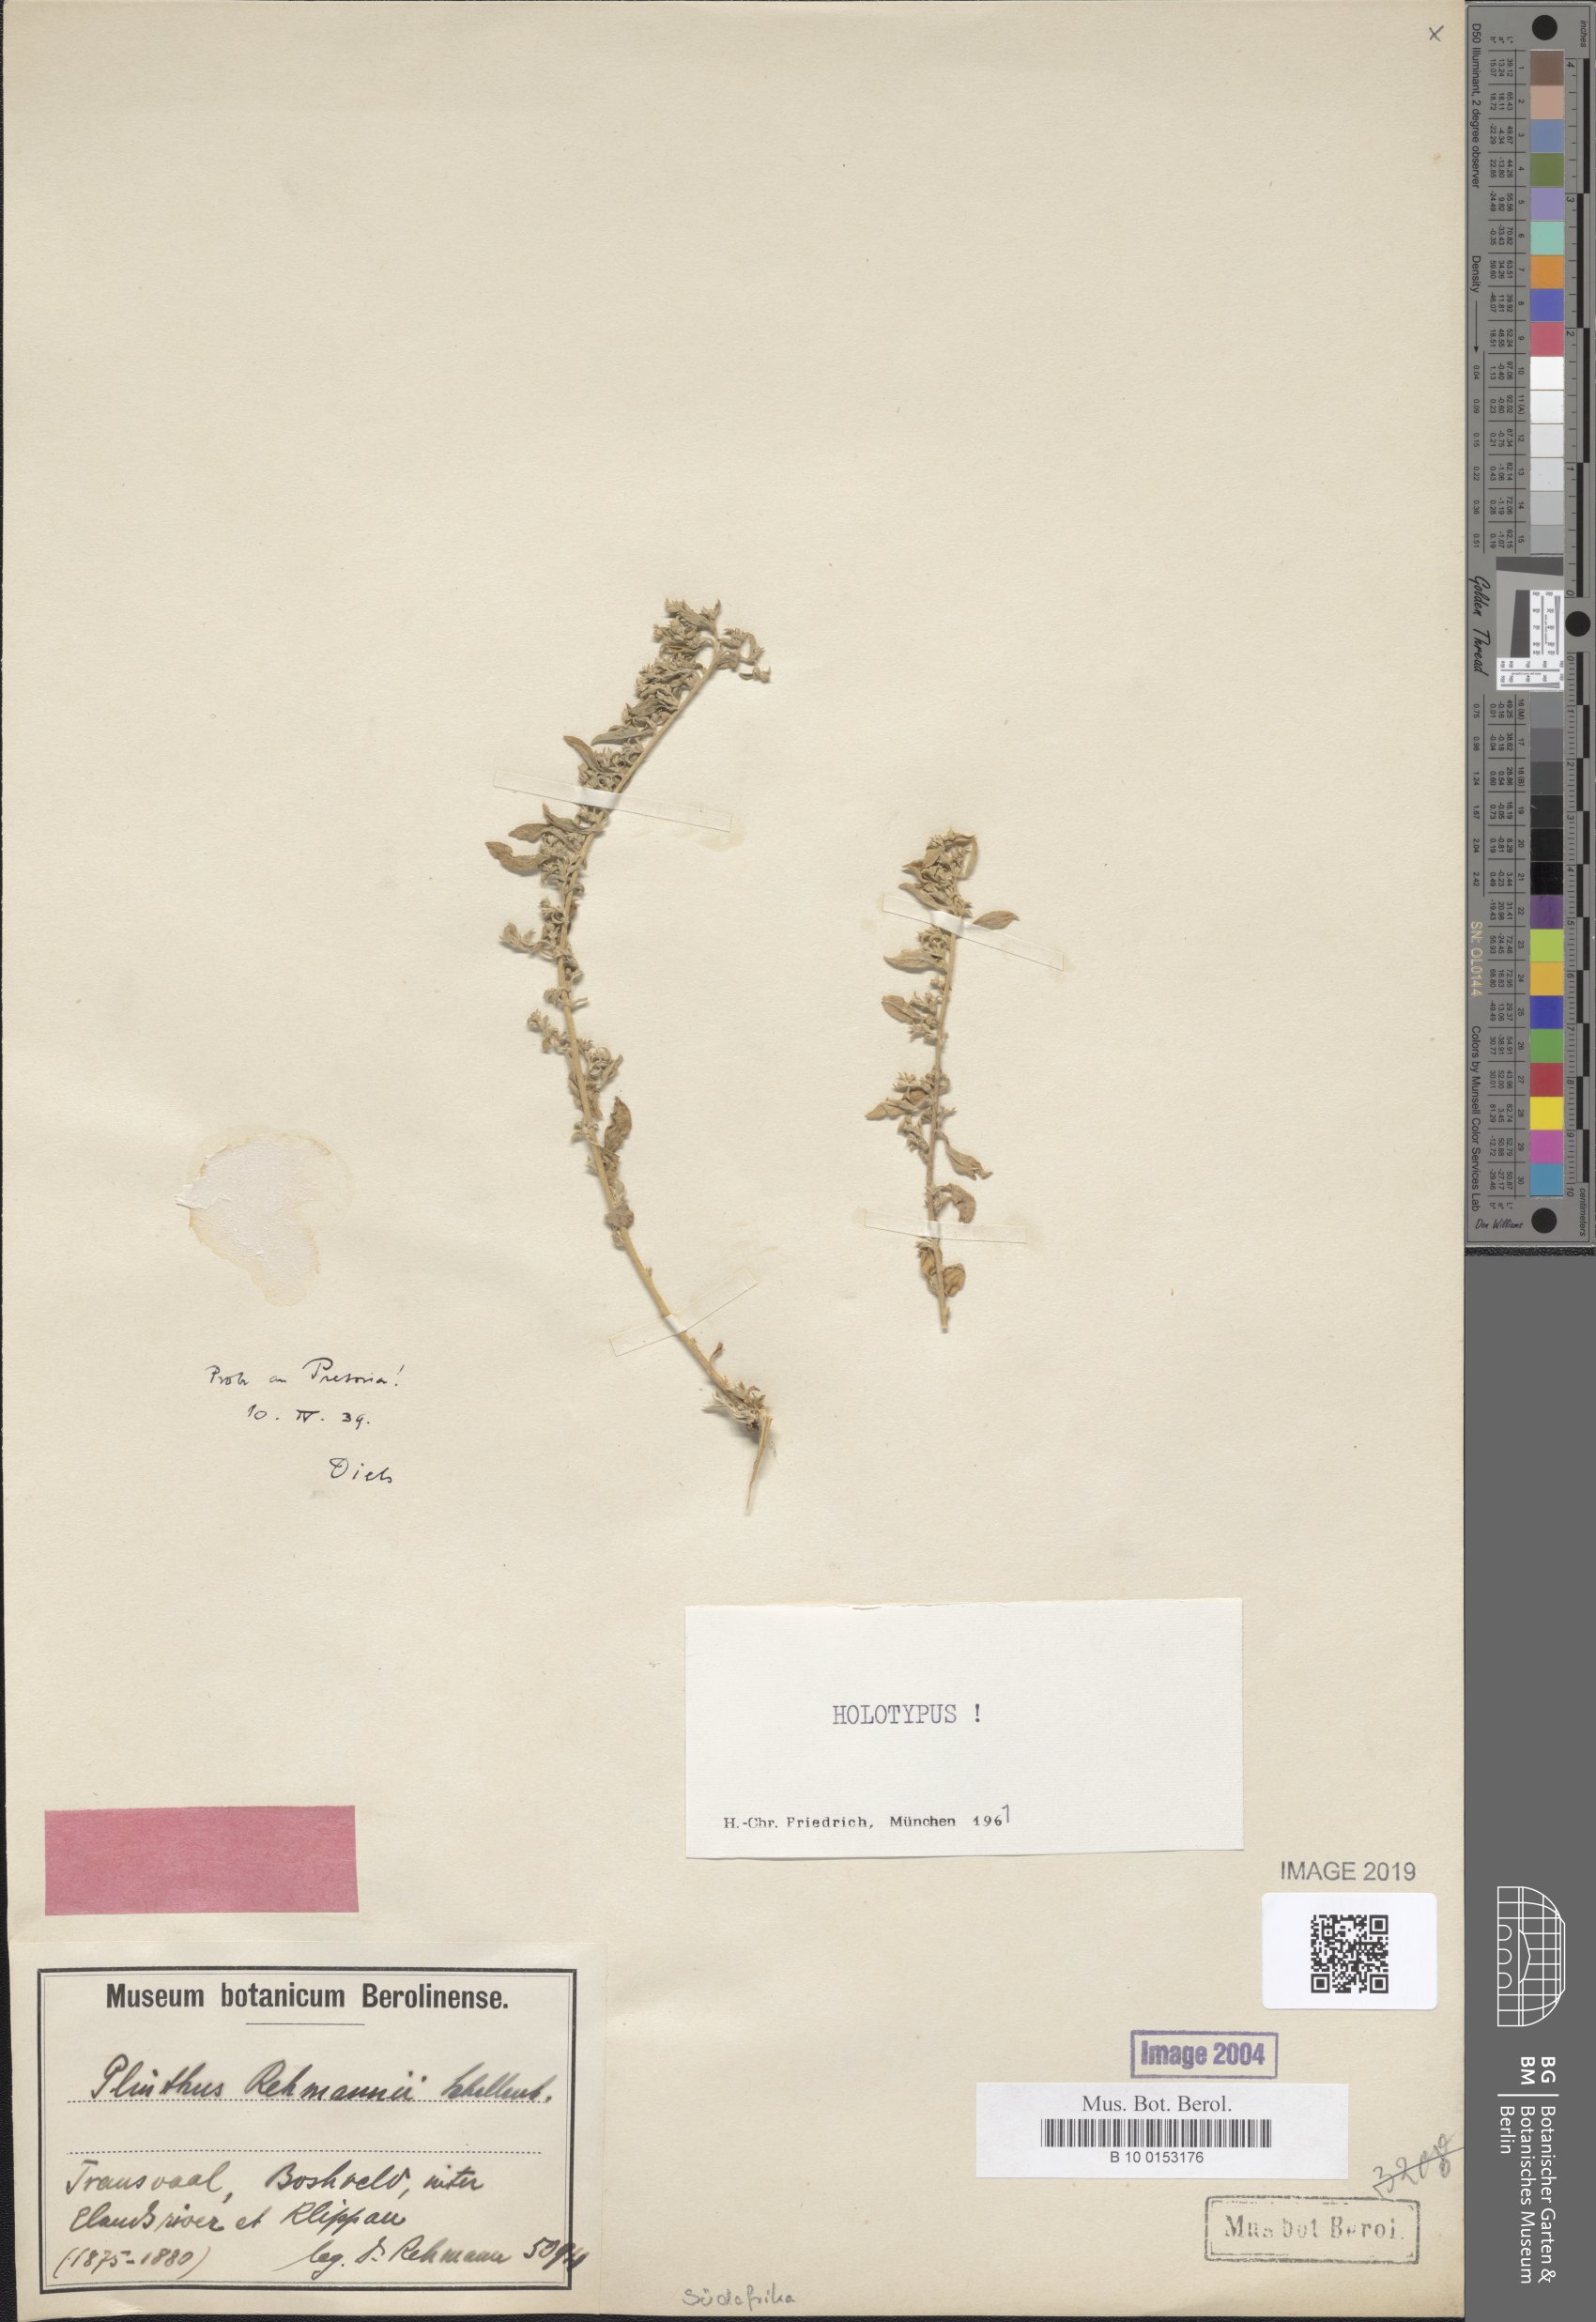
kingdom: Plantae
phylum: Tracheophyta
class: Magnoliopsida
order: Caryophyllales
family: Aizoaceae
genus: Aizoon
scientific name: Aizoon rehmannii
